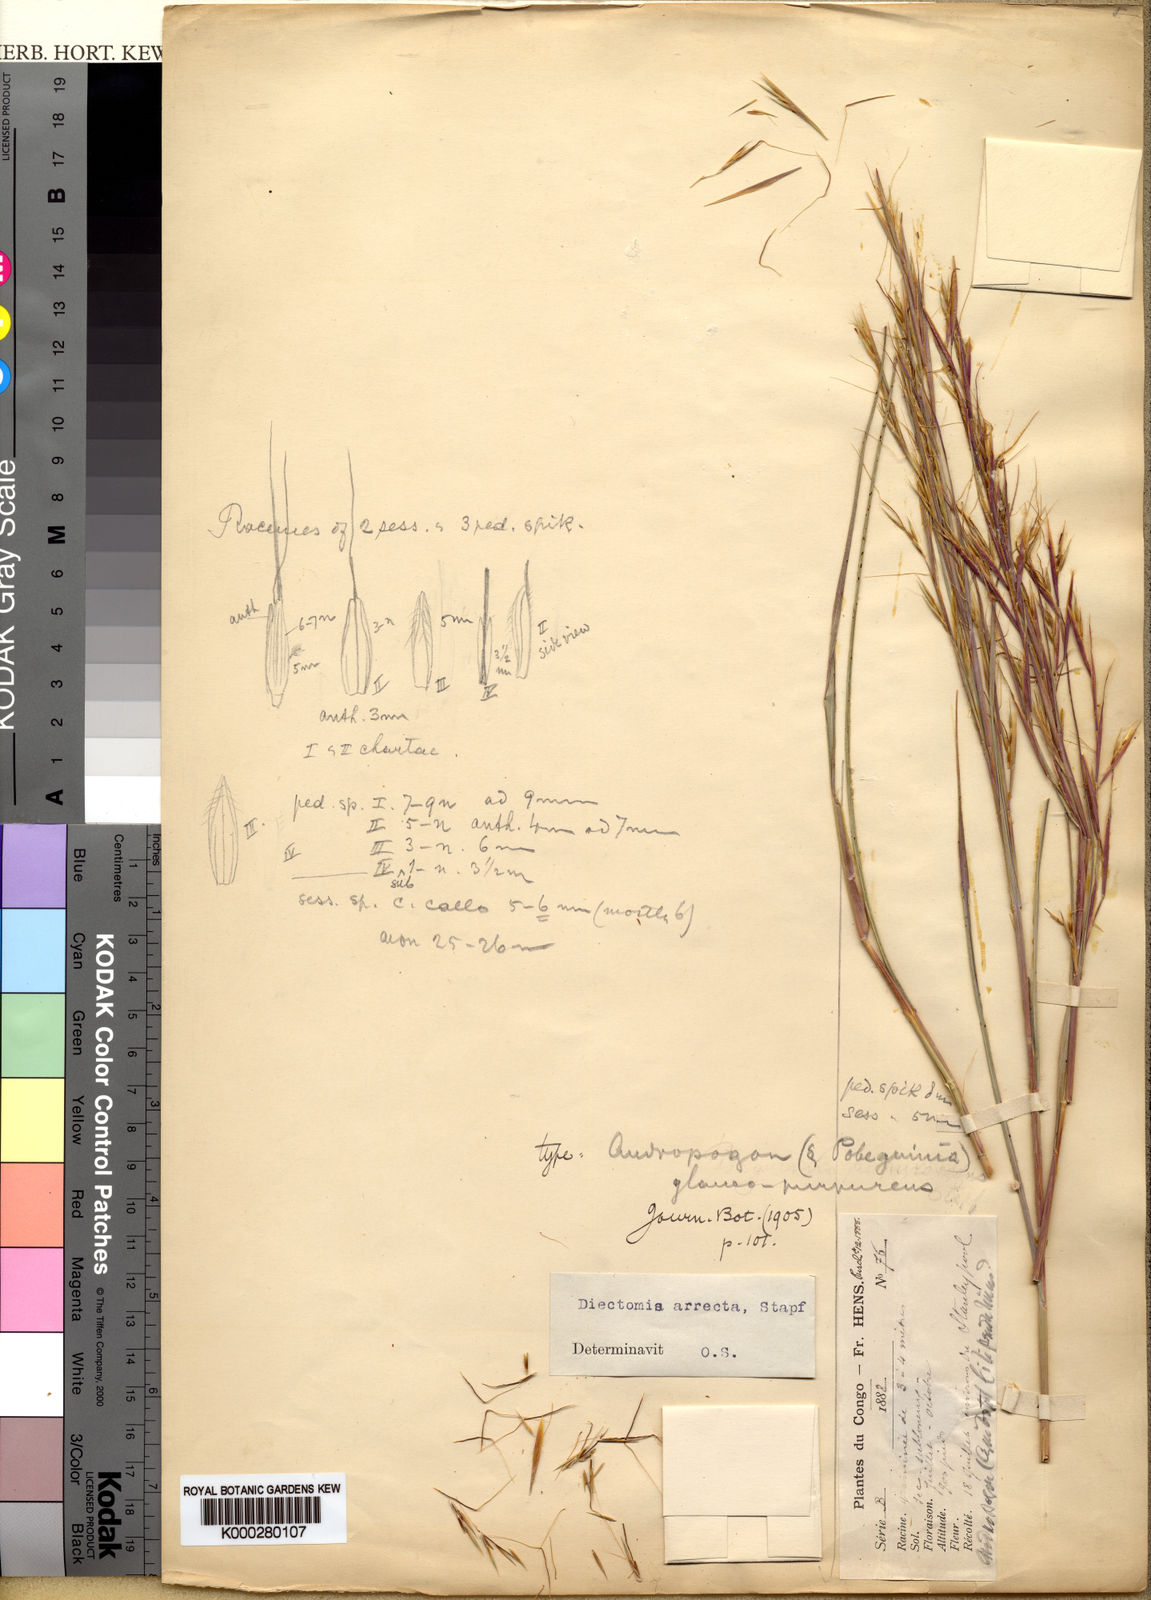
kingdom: Plantae
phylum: Tracheophyta
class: Liliopsida
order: Poales
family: Poaceae
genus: Anadelphia
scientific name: Anadelphia afzeliana
